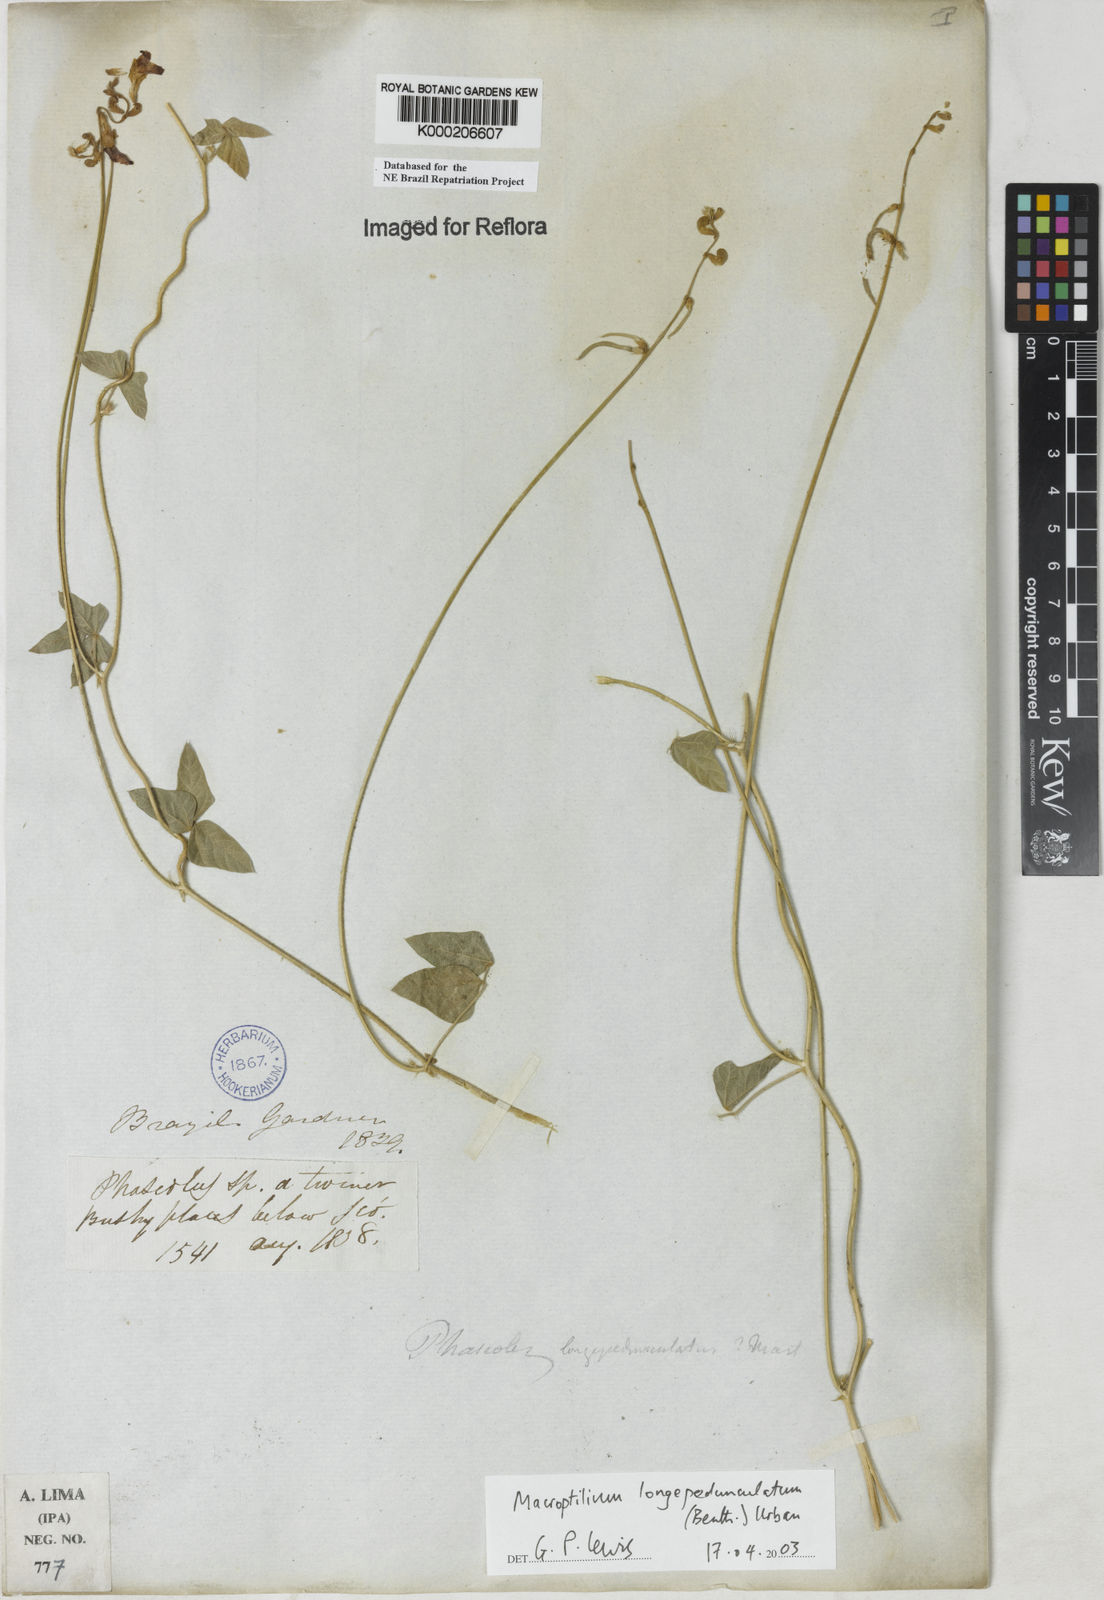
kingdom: Plantae
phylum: Tracheophyta
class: Magnoliopsida
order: Fabales
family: Fabaceae
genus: Macroptilium
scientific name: Macroptilium gracile
